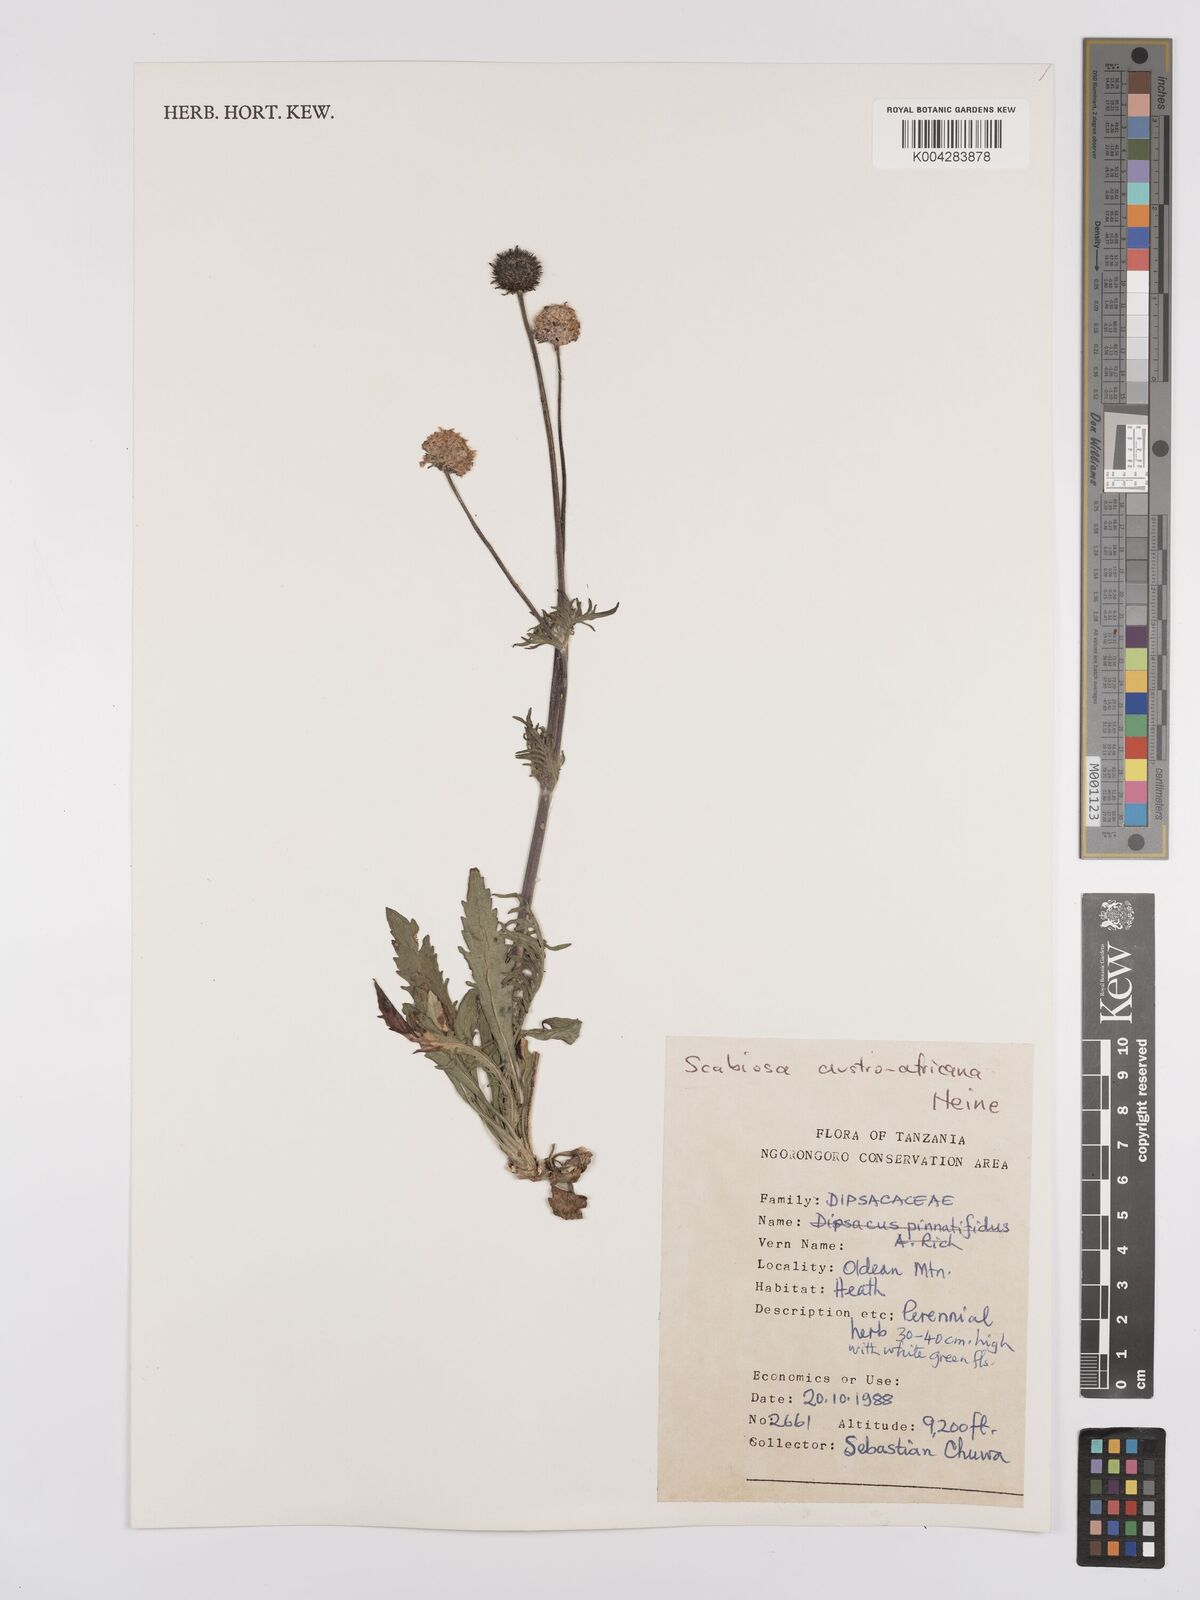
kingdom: Plantae
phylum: Tracheophyta
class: Magnoliopsida
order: Dipsacales
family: Caprifoliaceae
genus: Scabiosa
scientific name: Scabiosa austroafricana
